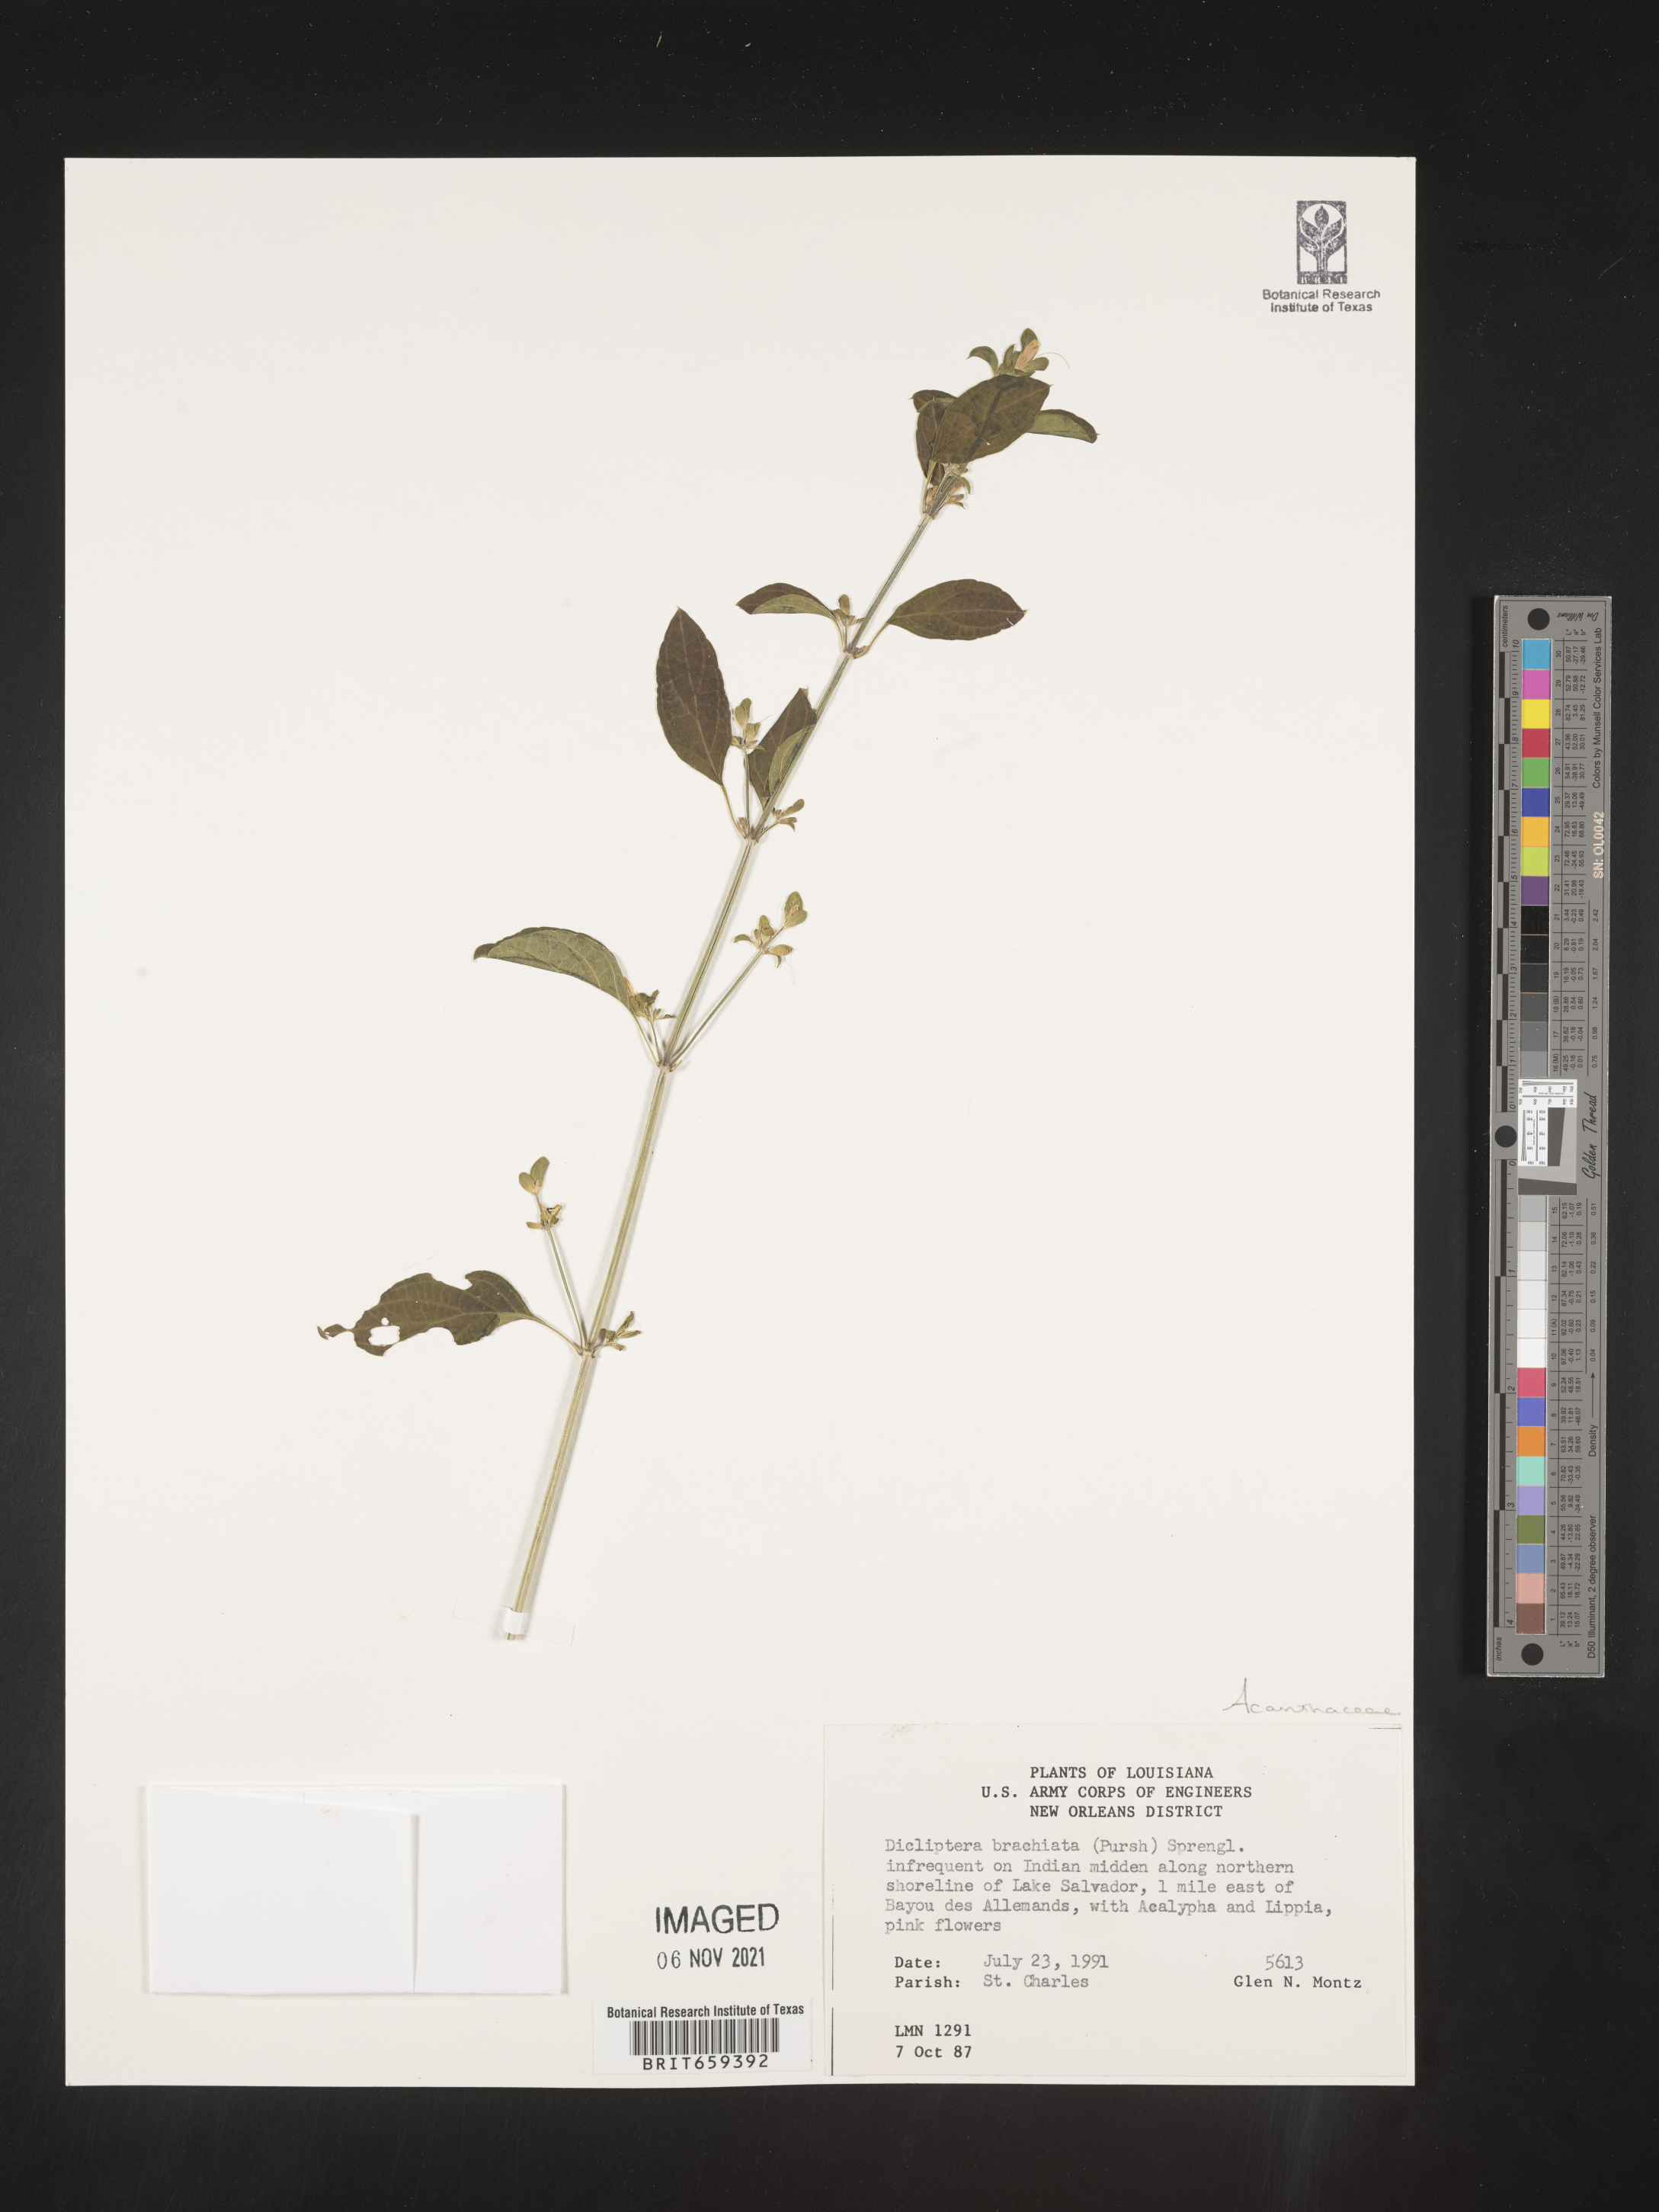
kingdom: Plantae
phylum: Tracheophyta
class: Magnoliopsida
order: Lamiales
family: Acanthaceae
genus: Dicliptera
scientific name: Dicliptera brachiata
